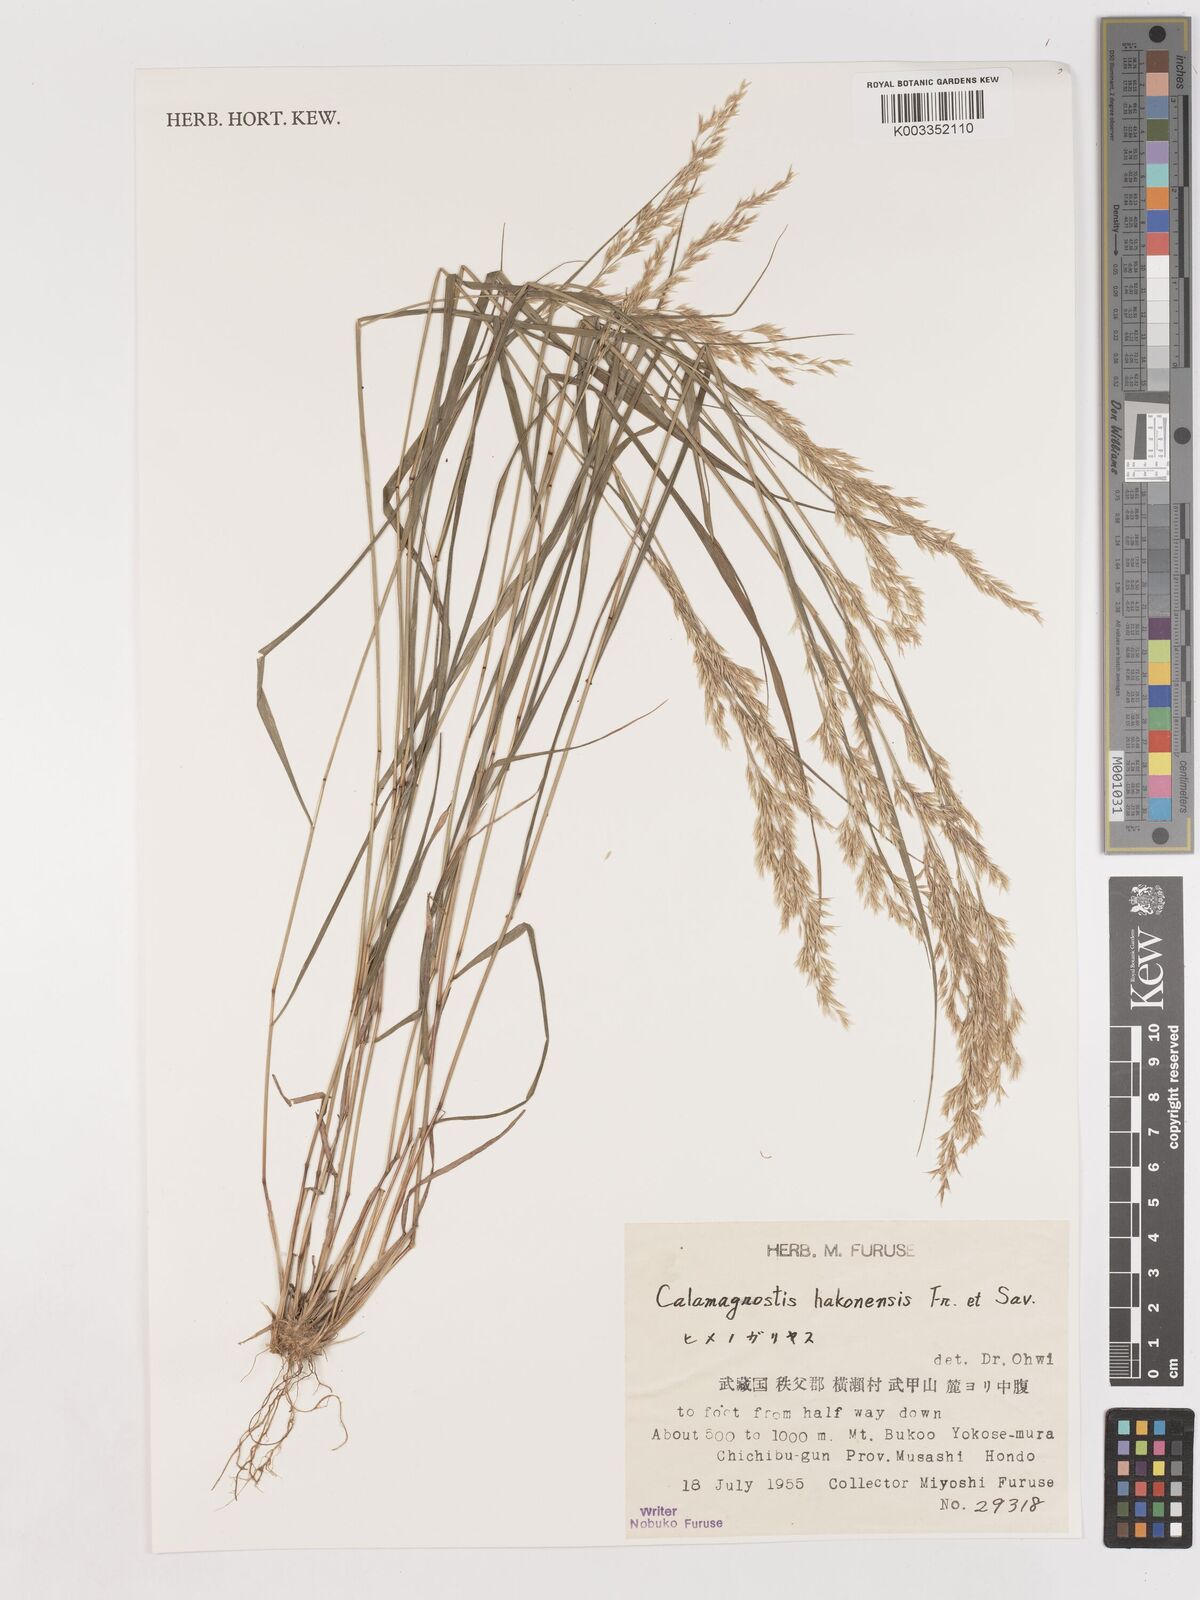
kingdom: Plantae
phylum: Tracheophyta
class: Liliopsida
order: Poales
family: Poaceae
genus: Calamagrostis
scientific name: Calamagrostis hakonensis
